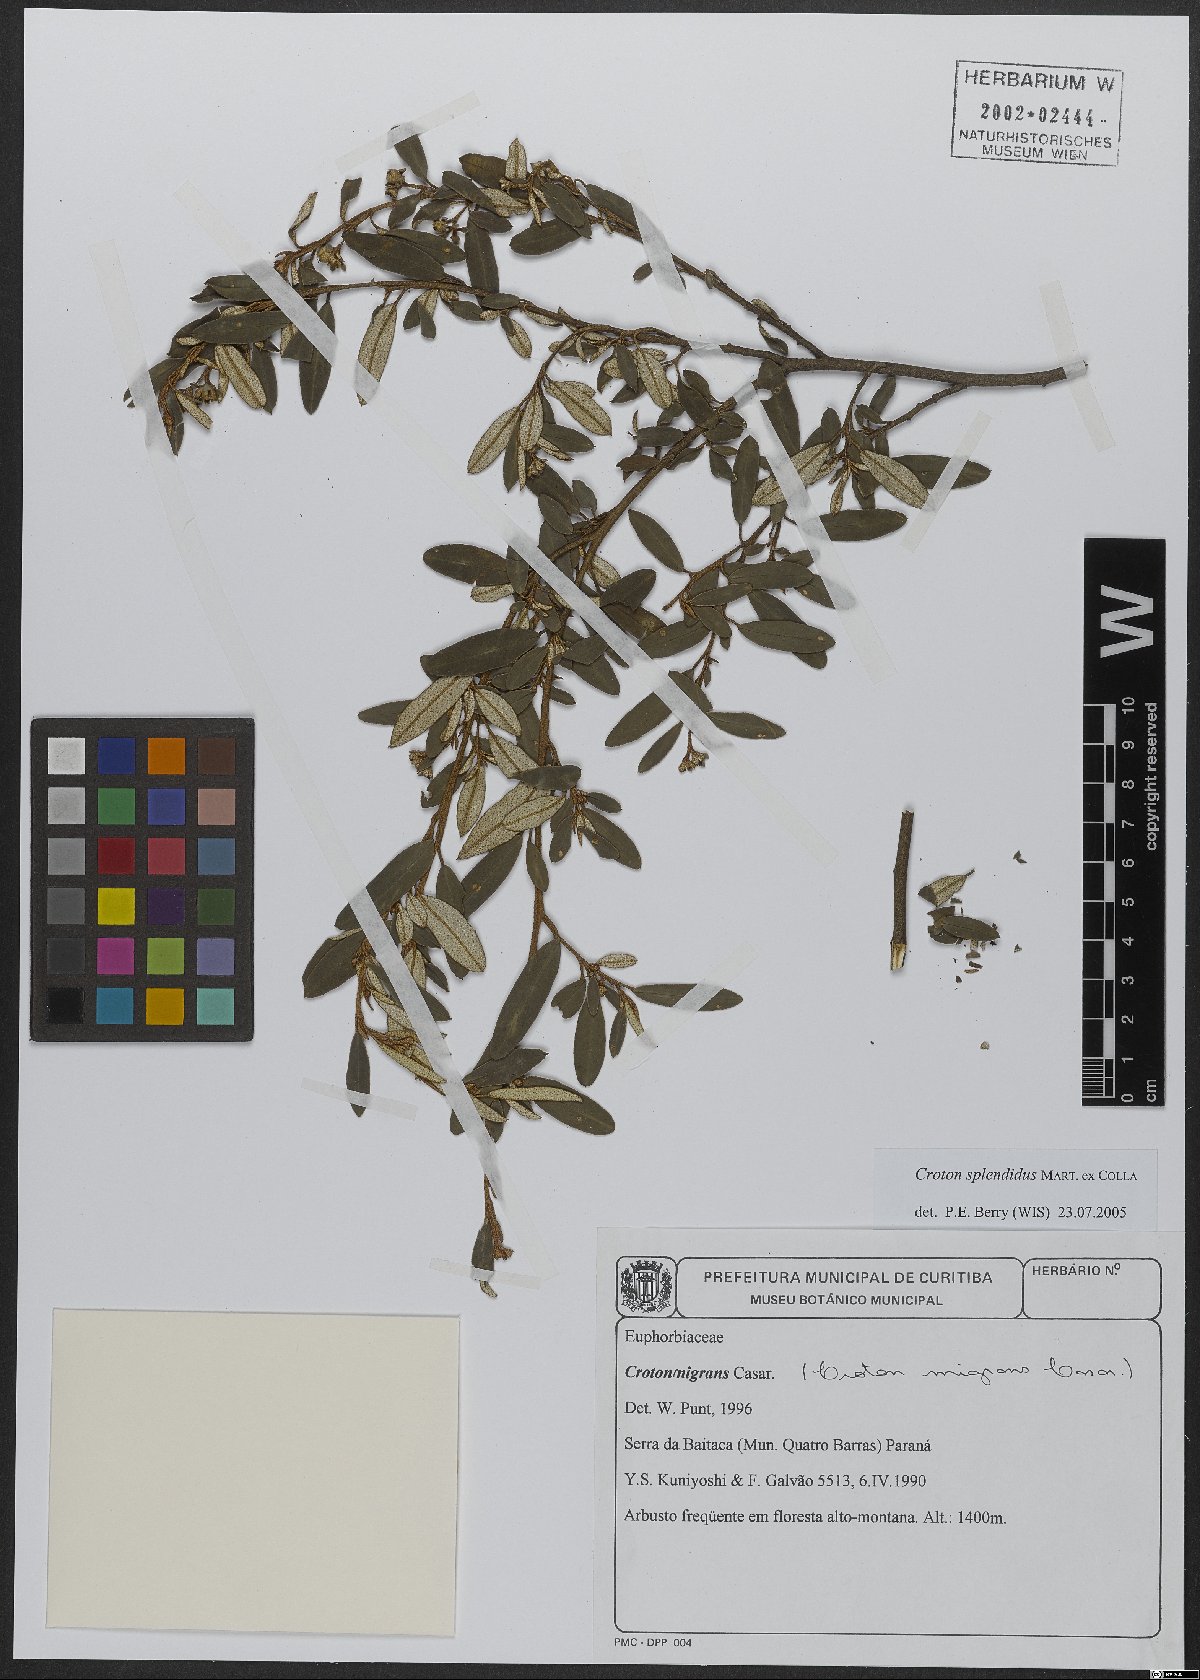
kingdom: Plantae
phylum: Tracheophyta
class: Magnoliopsida
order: Malpighiales
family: Euphorbiaceae
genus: Croton
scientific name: Croton splendidus
